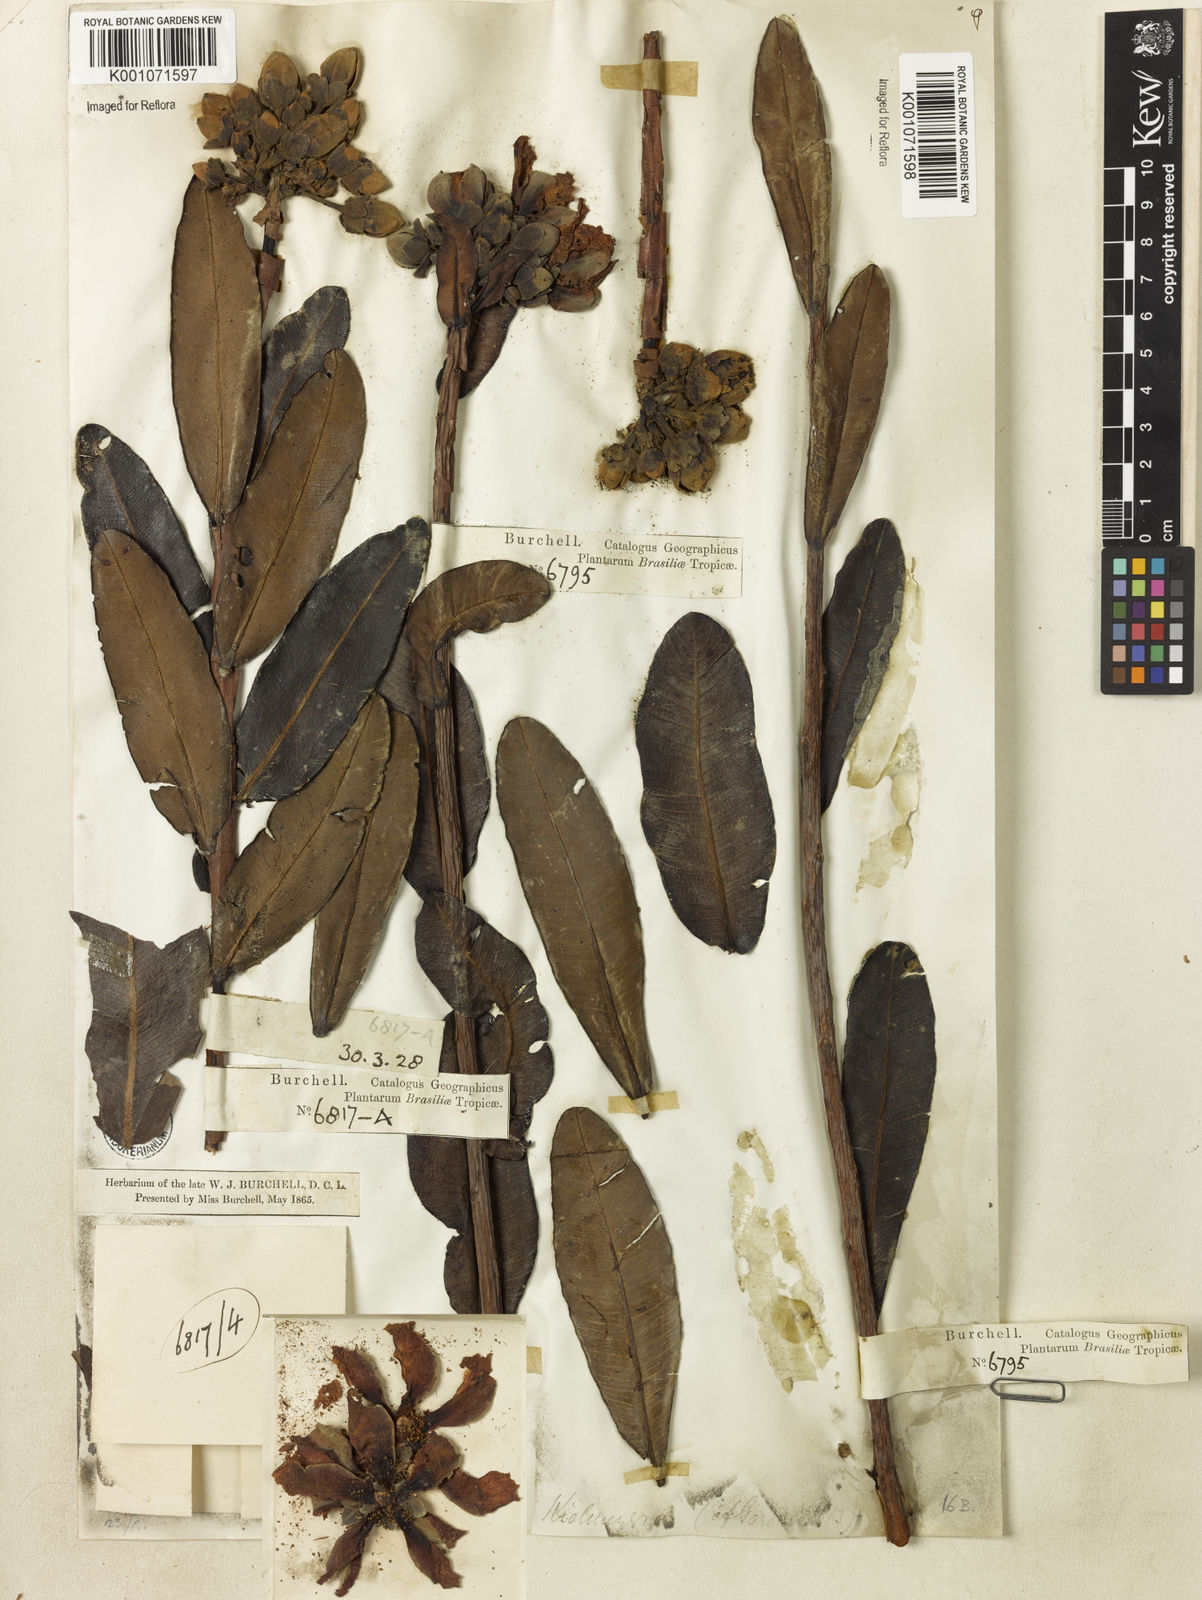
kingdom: Plantae
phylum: Tracheophyta
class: Magnoliopsida
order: Malpighiales
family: Calophyllaceae
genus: Kielmeyera
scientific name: Kielmeyera rubriflora
